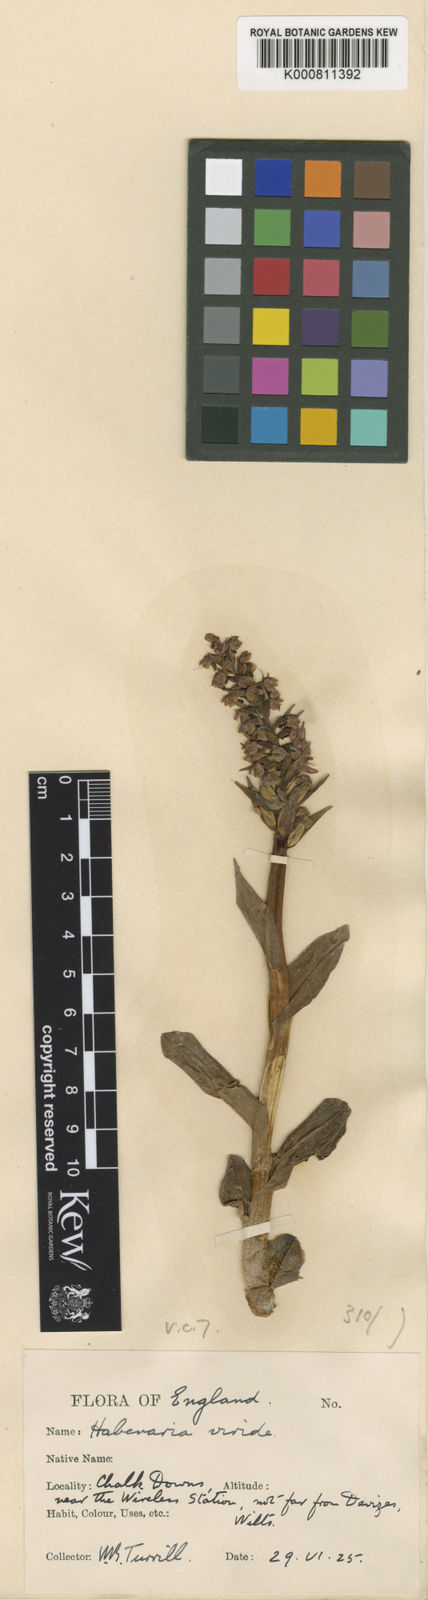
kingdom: Plantae
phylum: Tracheophyta
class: Liliopsida
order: Asparagales
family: Orchidaceae
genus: Dactylorhiza
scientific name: Dactylorhiza viridis
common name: Longbract frog orchid
